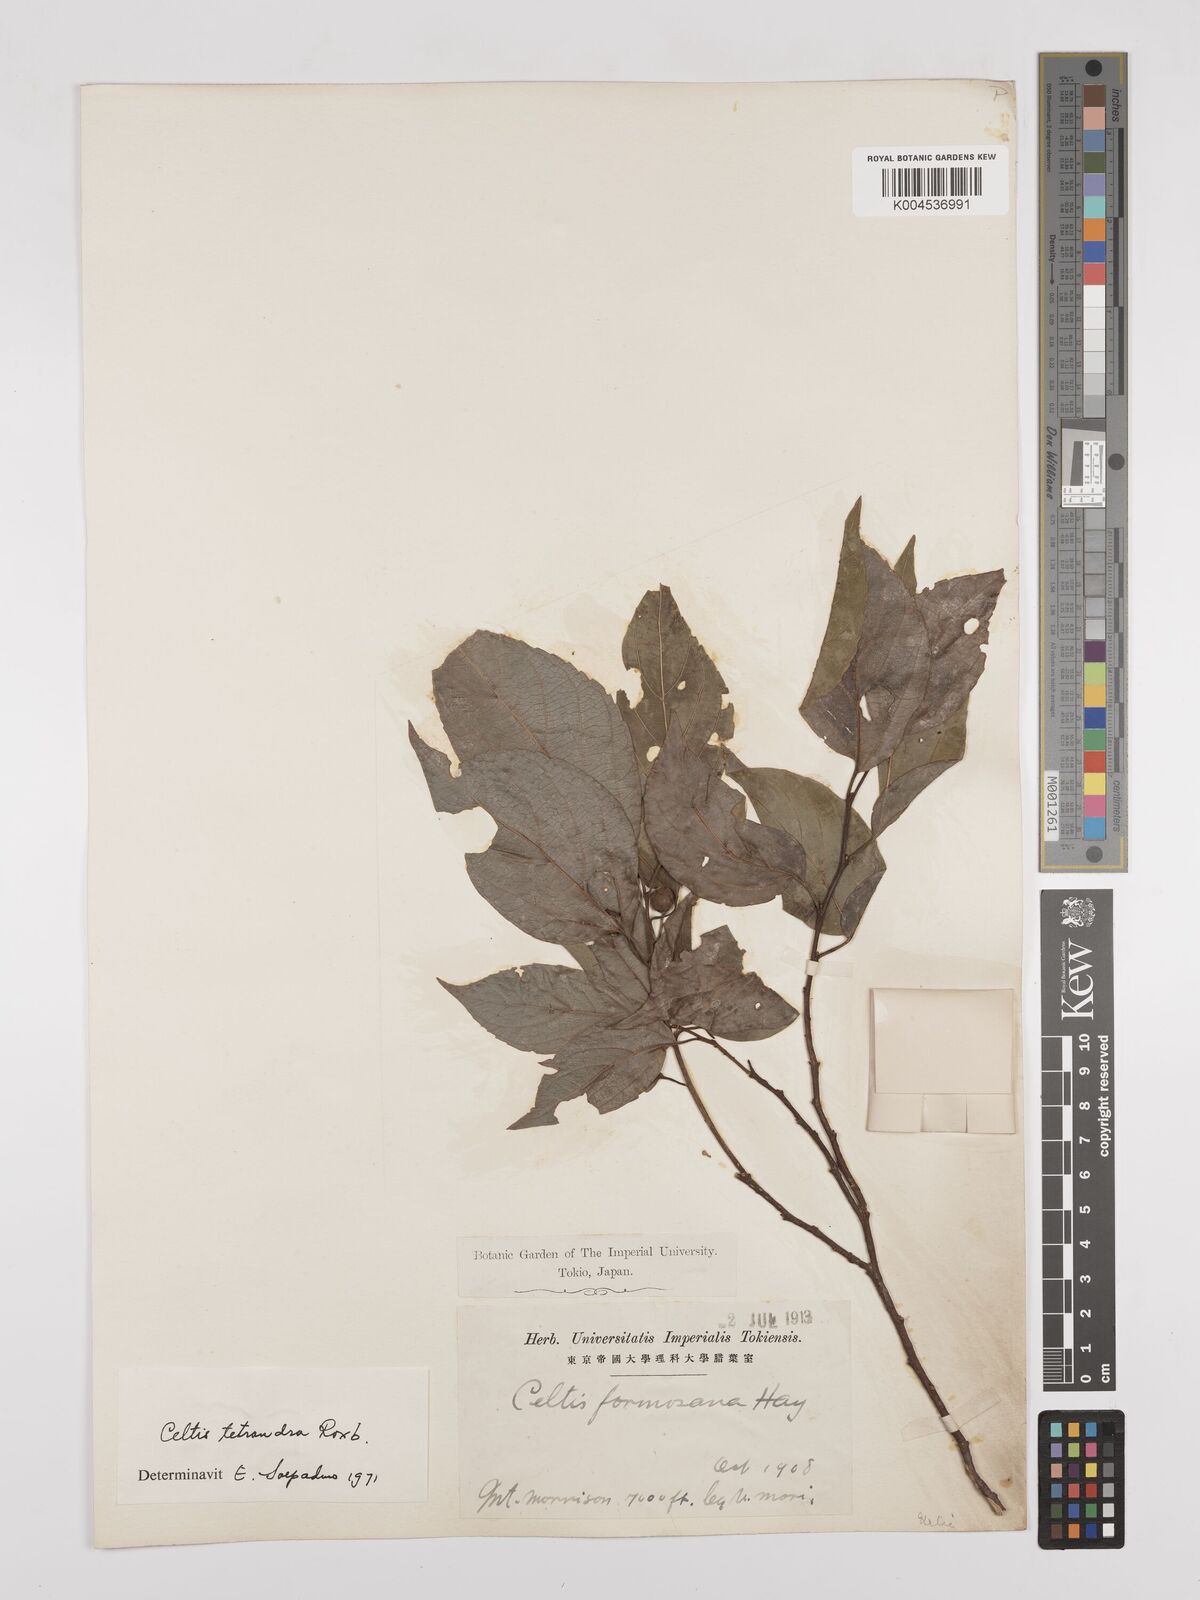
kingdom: Plantae
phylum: Tracheophyta
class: Magnoliopsida
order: Rosales
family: Cannabaceae
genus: Celtis
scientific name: Celtis tetrandra
